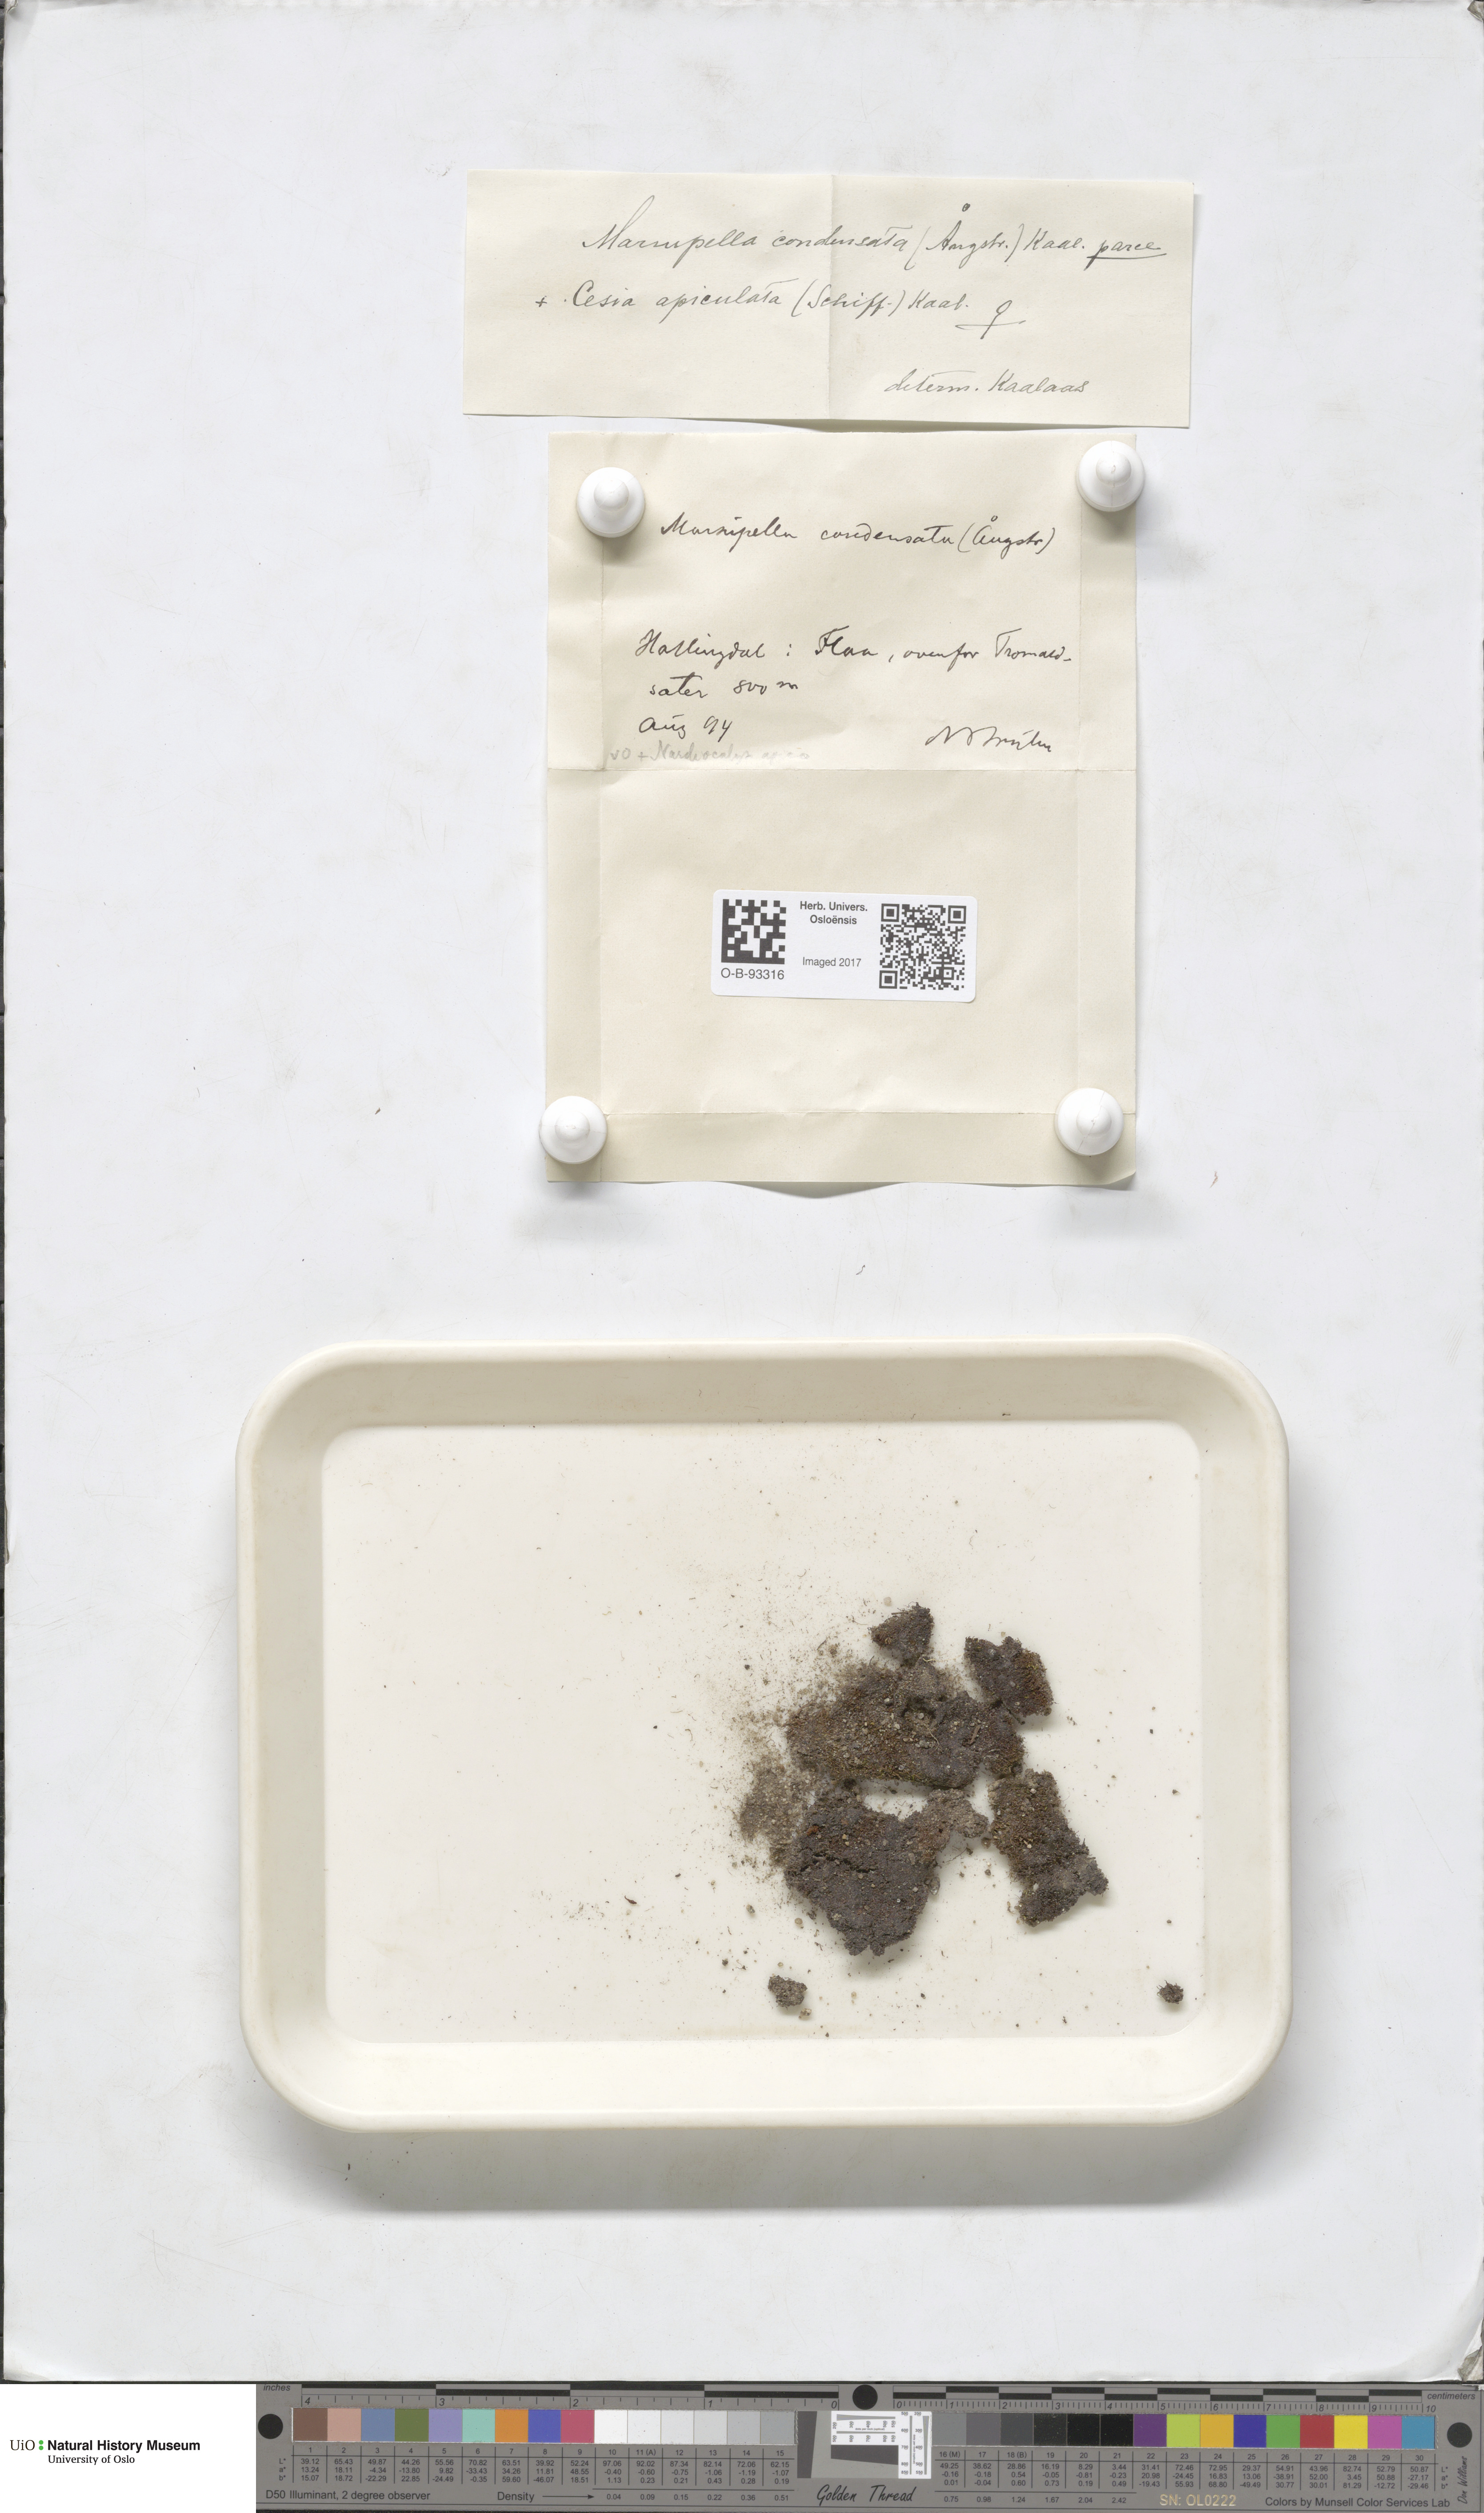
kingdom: Plantae
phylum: Marchantiophyta
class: Jungermanniopsida
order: Jungermanniales
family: Gymnomitriaceae
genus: Gymnomitrion
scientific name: Gymnomitrion brevissimum
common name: Snow rustwort
